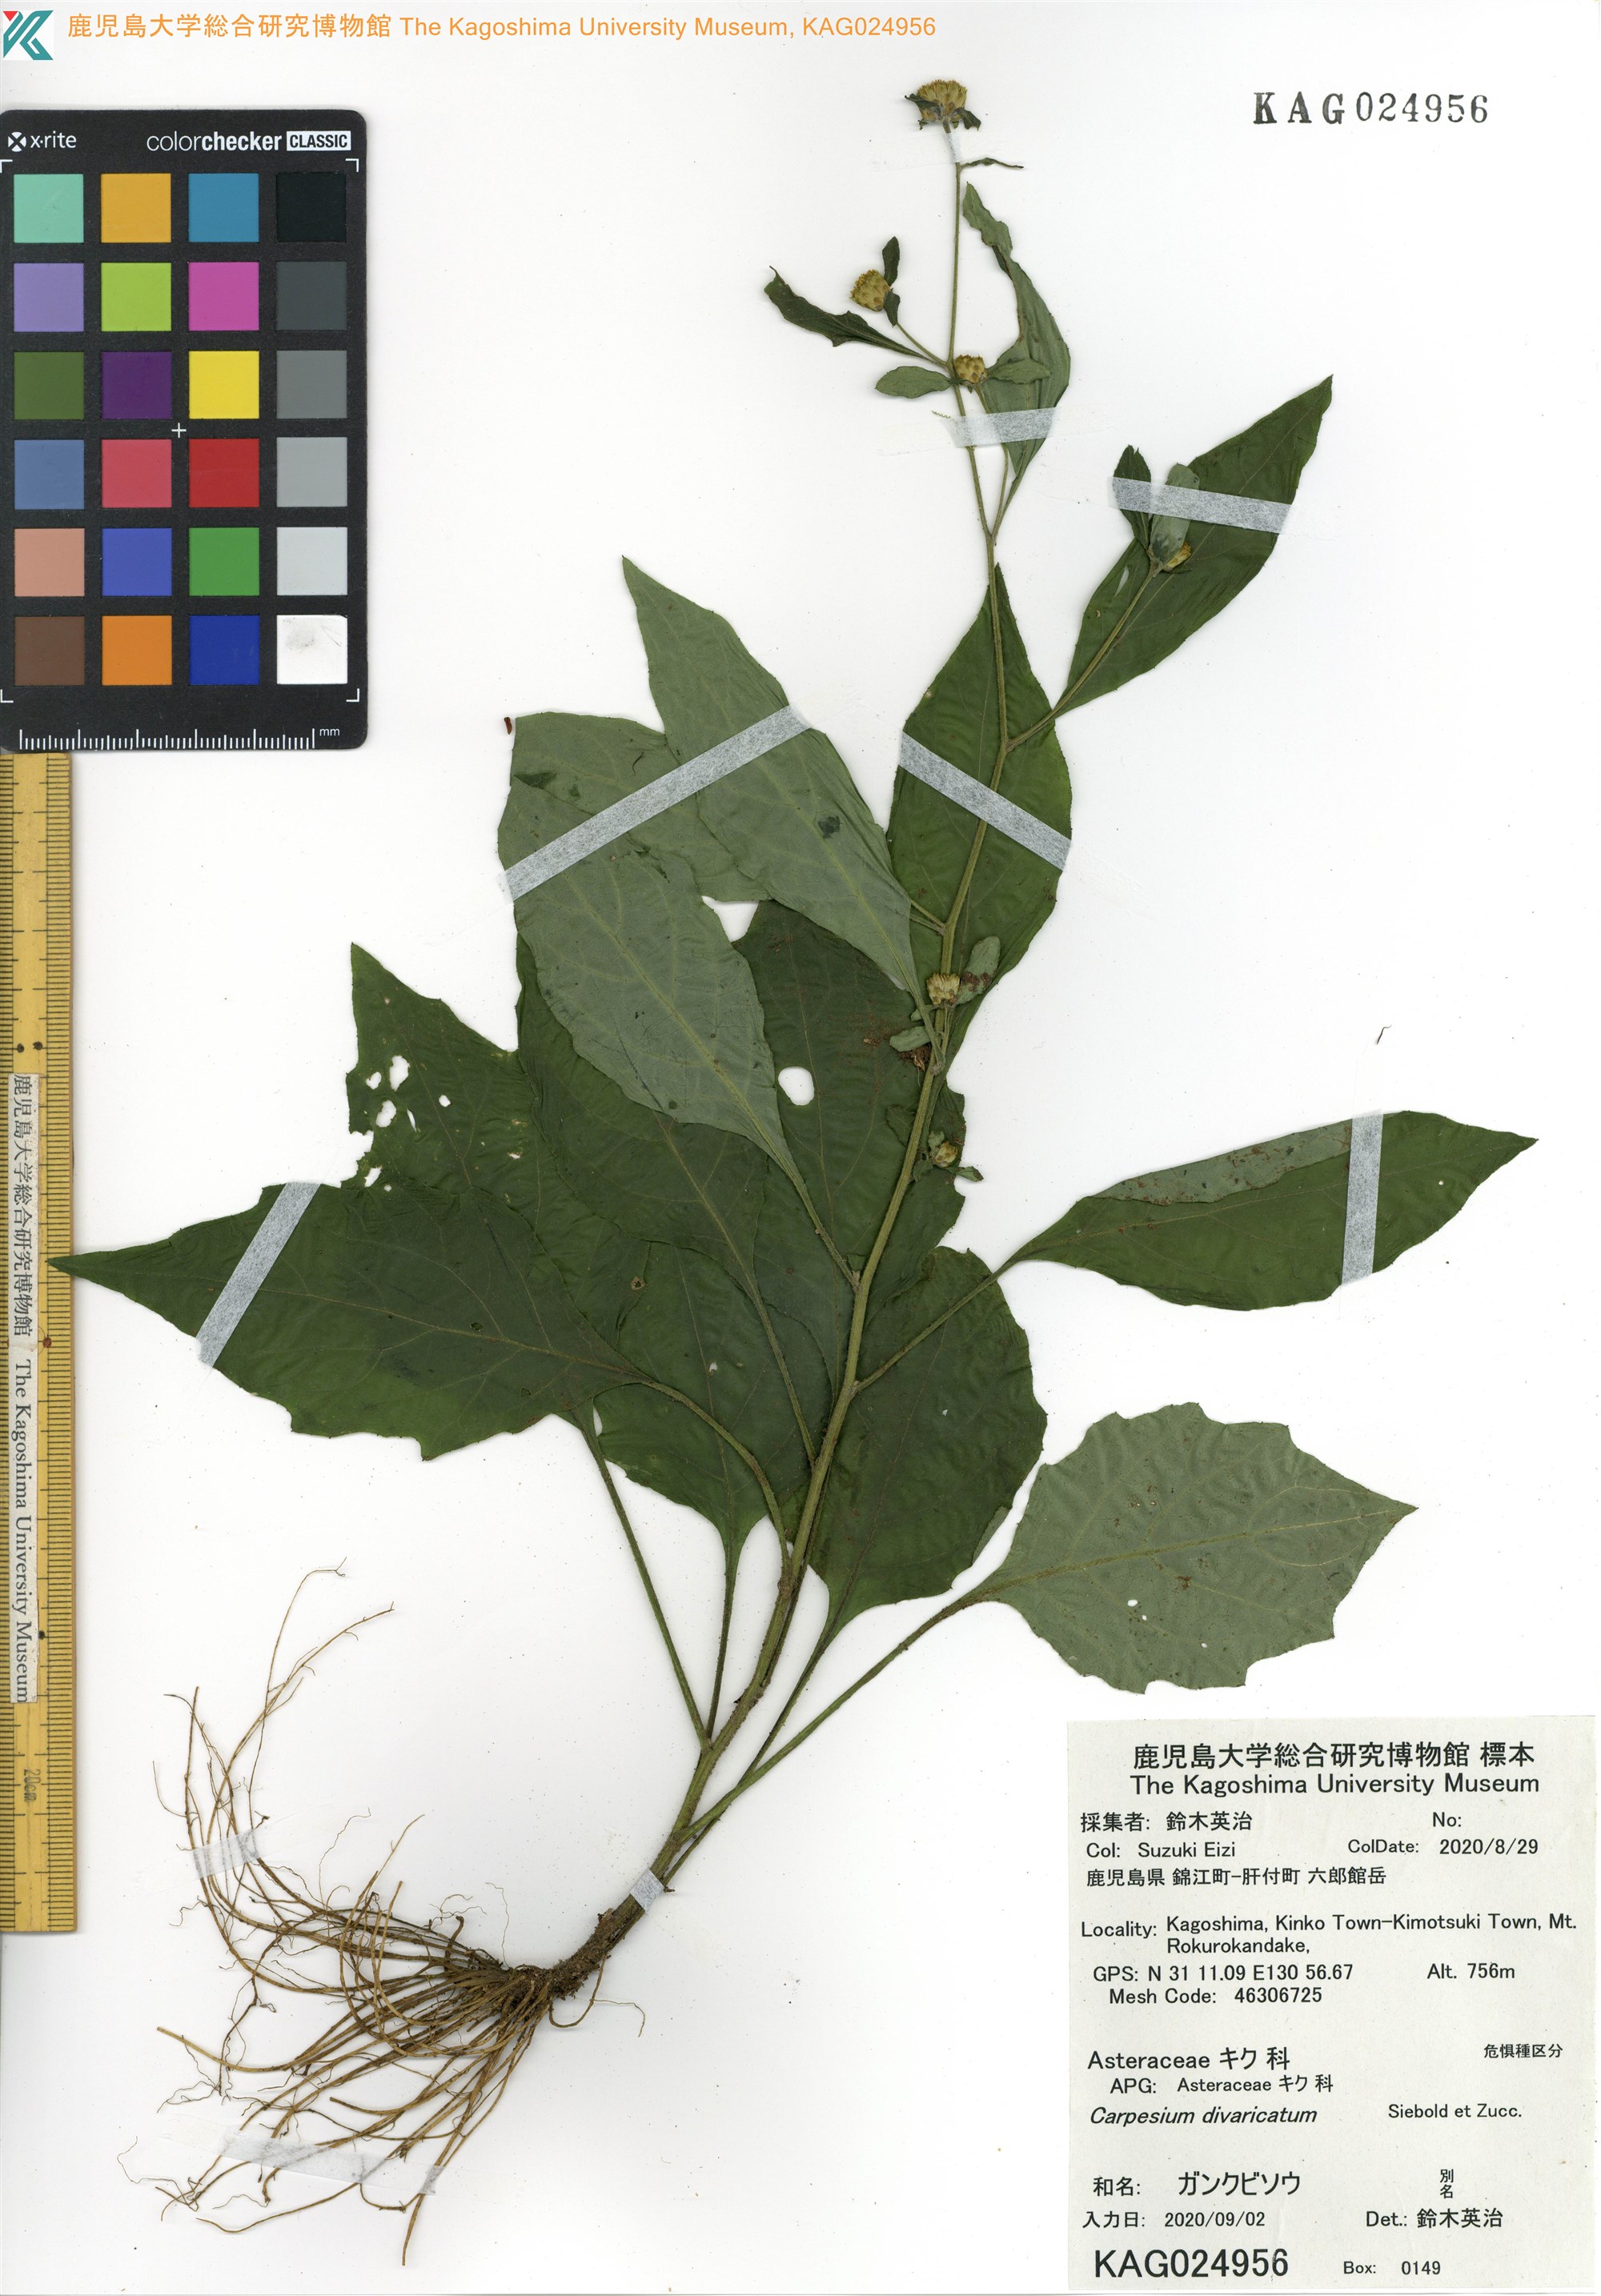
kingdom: Plantae
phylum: Tracheophyta
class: Magnoliopsida
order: Asterales
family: Asteraceae
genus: Carpesium
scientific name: Carpesium divaricatum
